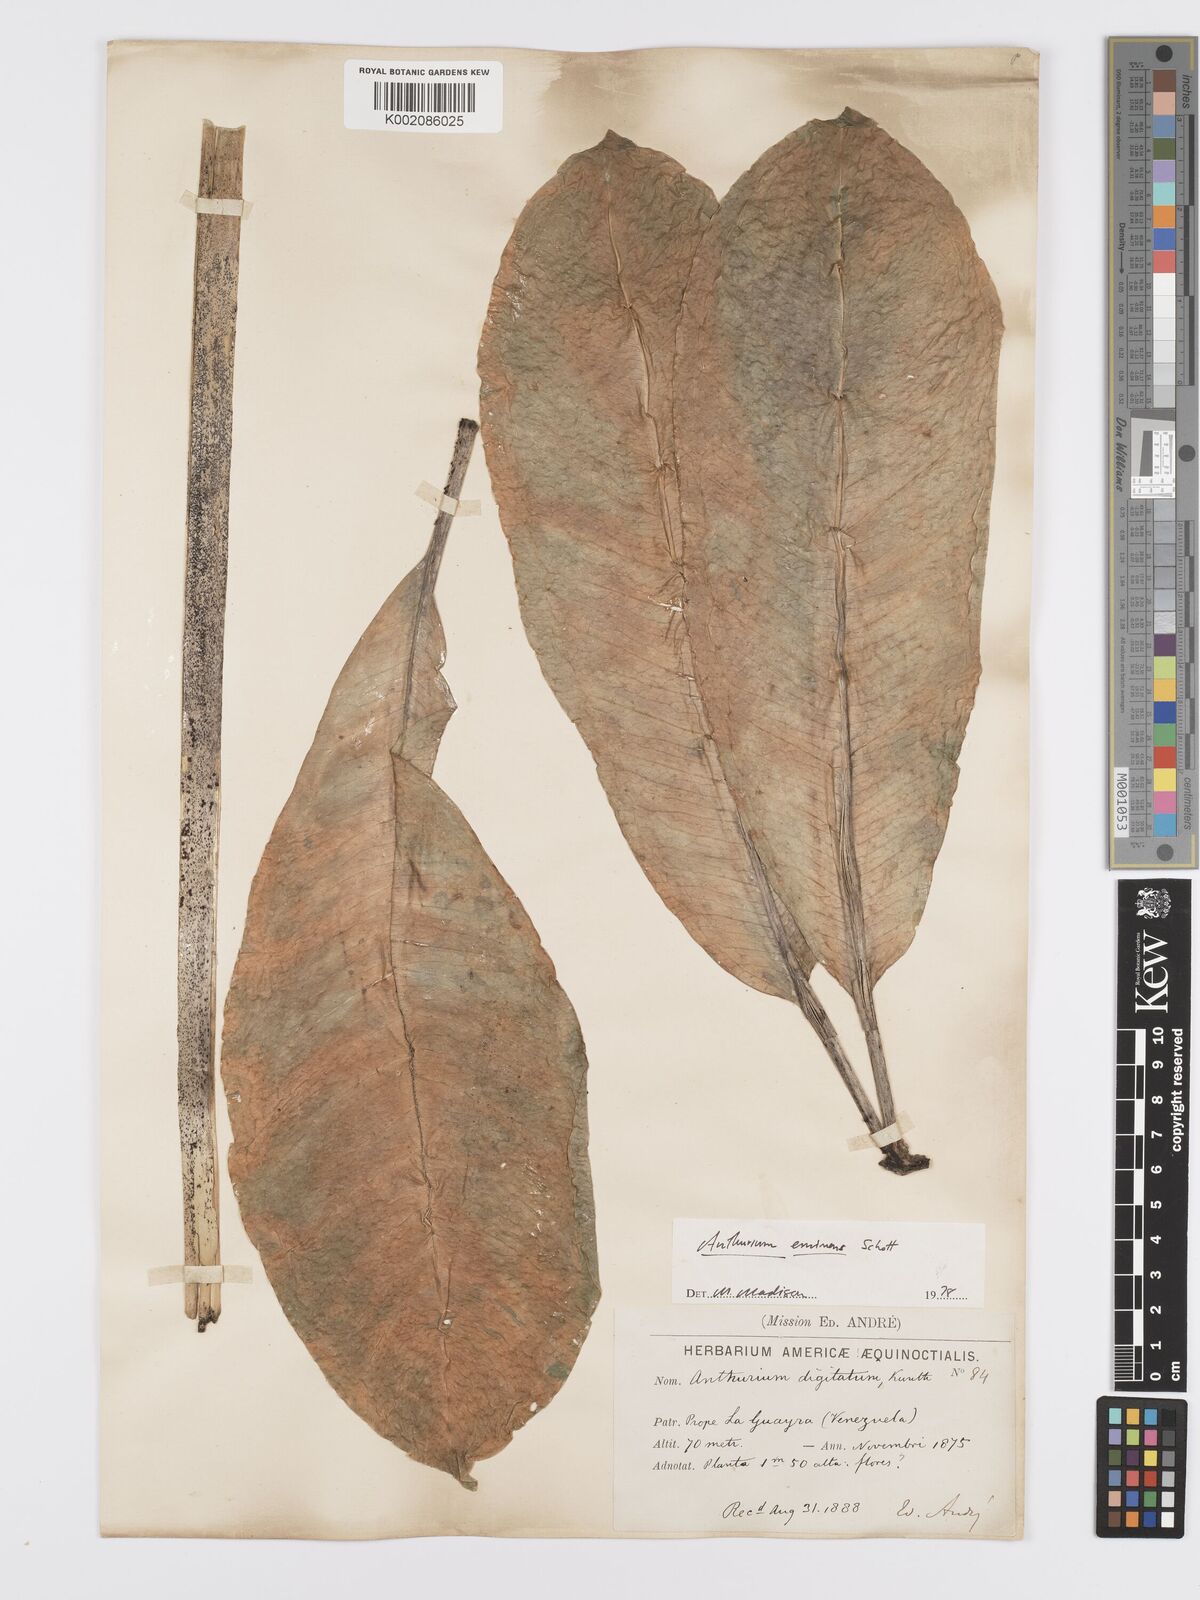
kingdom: Plantae
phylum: Tracheophyta
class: Liliopsida
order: Alismatales
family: Araceae
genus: Anthurium
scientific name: Anthurium eminens
